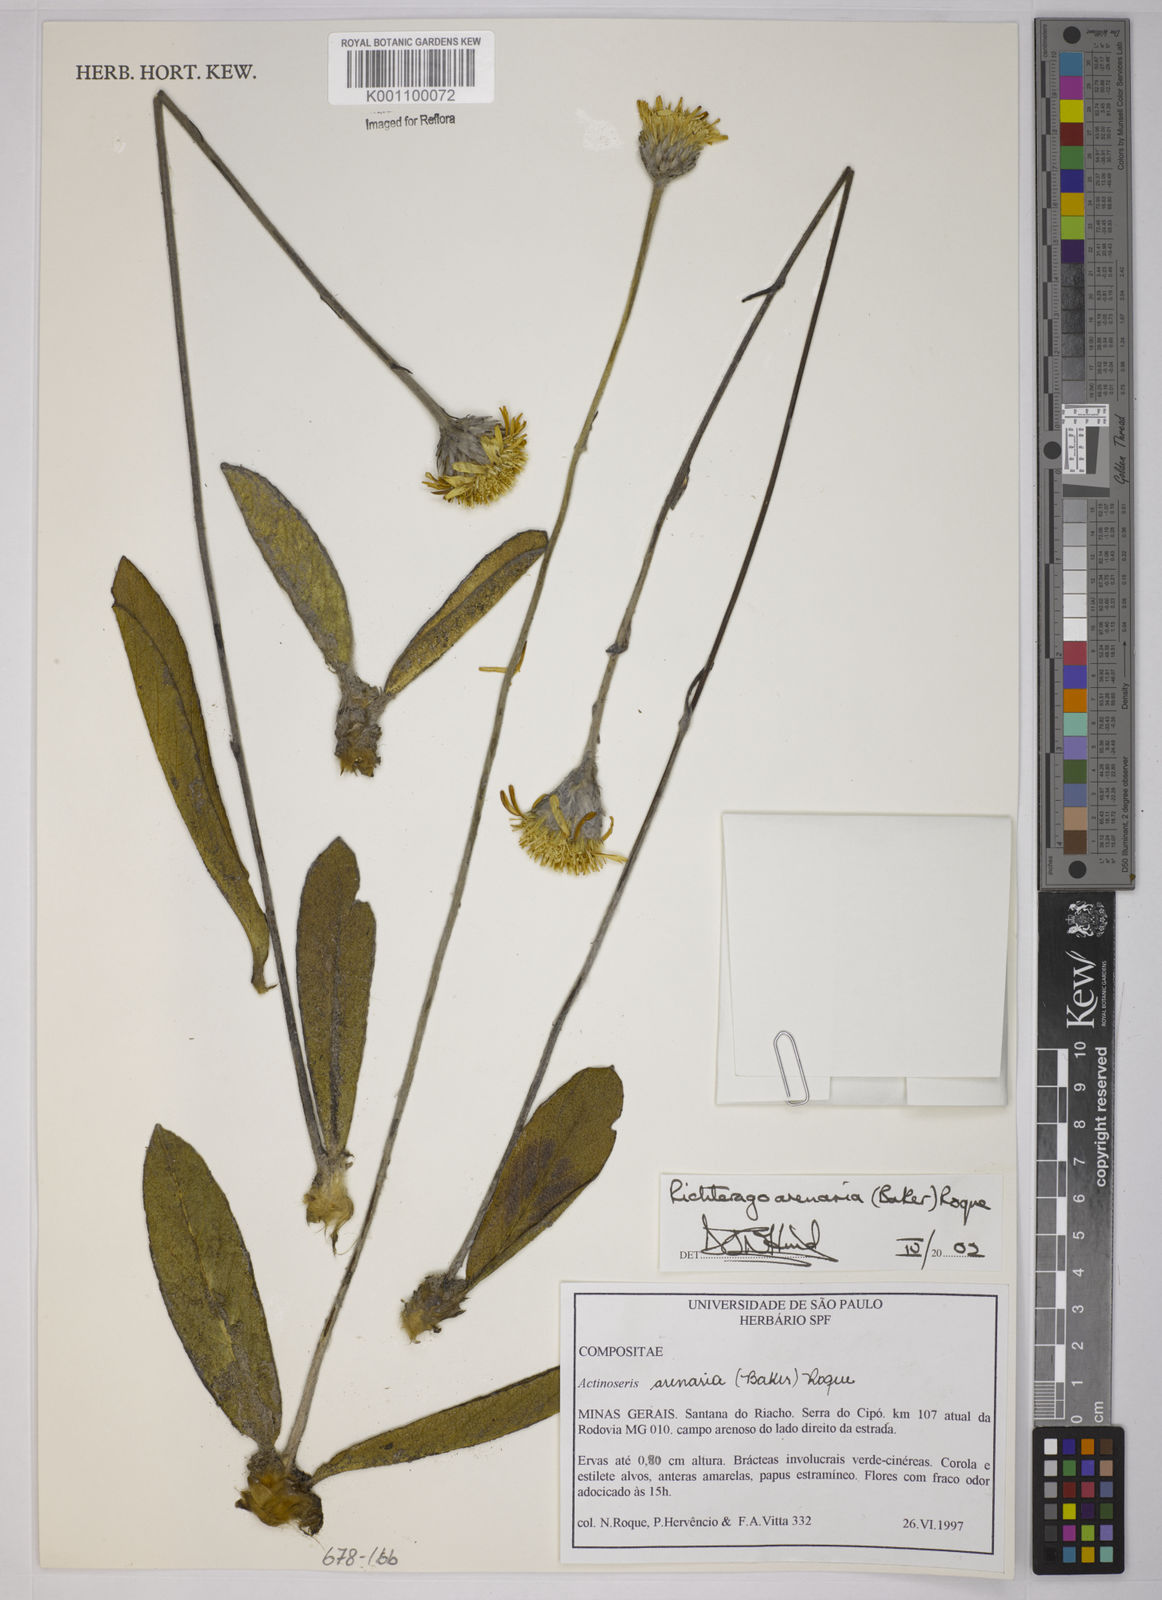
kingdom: Plantae
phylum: Tracheophyta
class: Magnoliopsida
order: Asterales
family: Asteraceae
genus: Richterago
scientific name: Richterago arenaria
